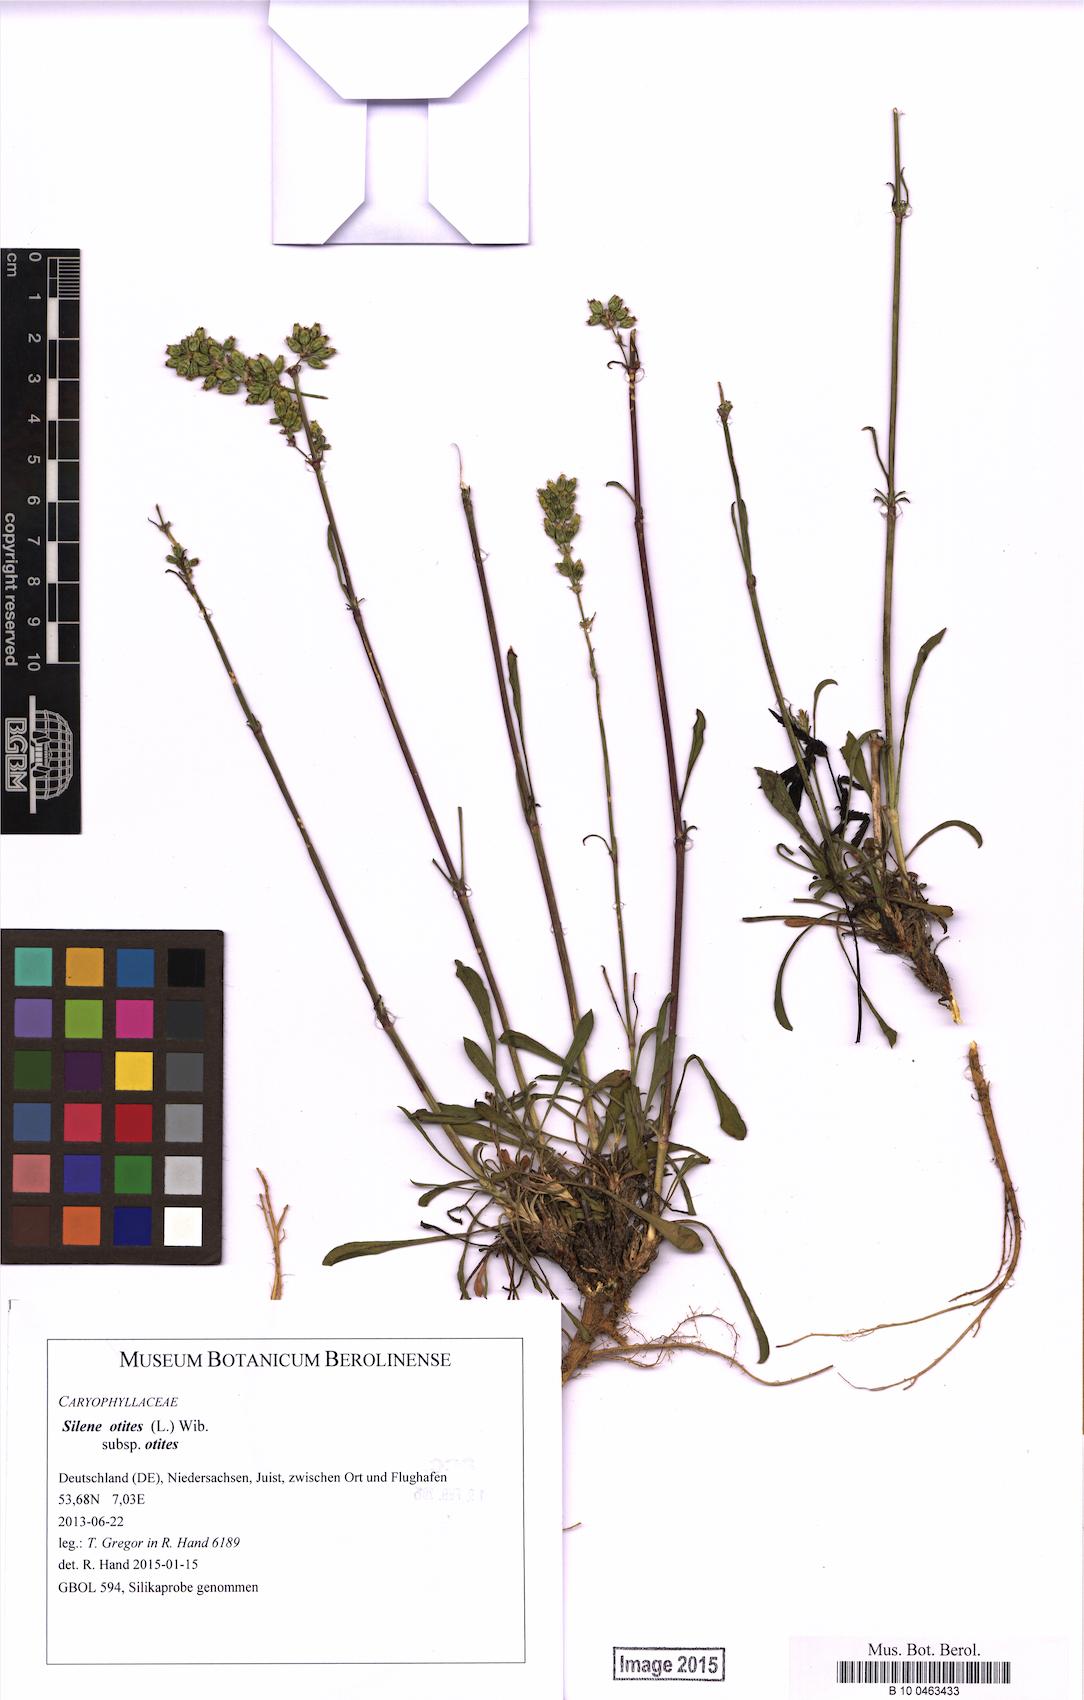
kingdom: Plantae
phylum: Tracheophyta
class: Magnoliopsida
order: Caryophyllales
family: Caryophyllaceae
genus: Silene
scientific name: Silene otites
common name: Spanish catchfly
